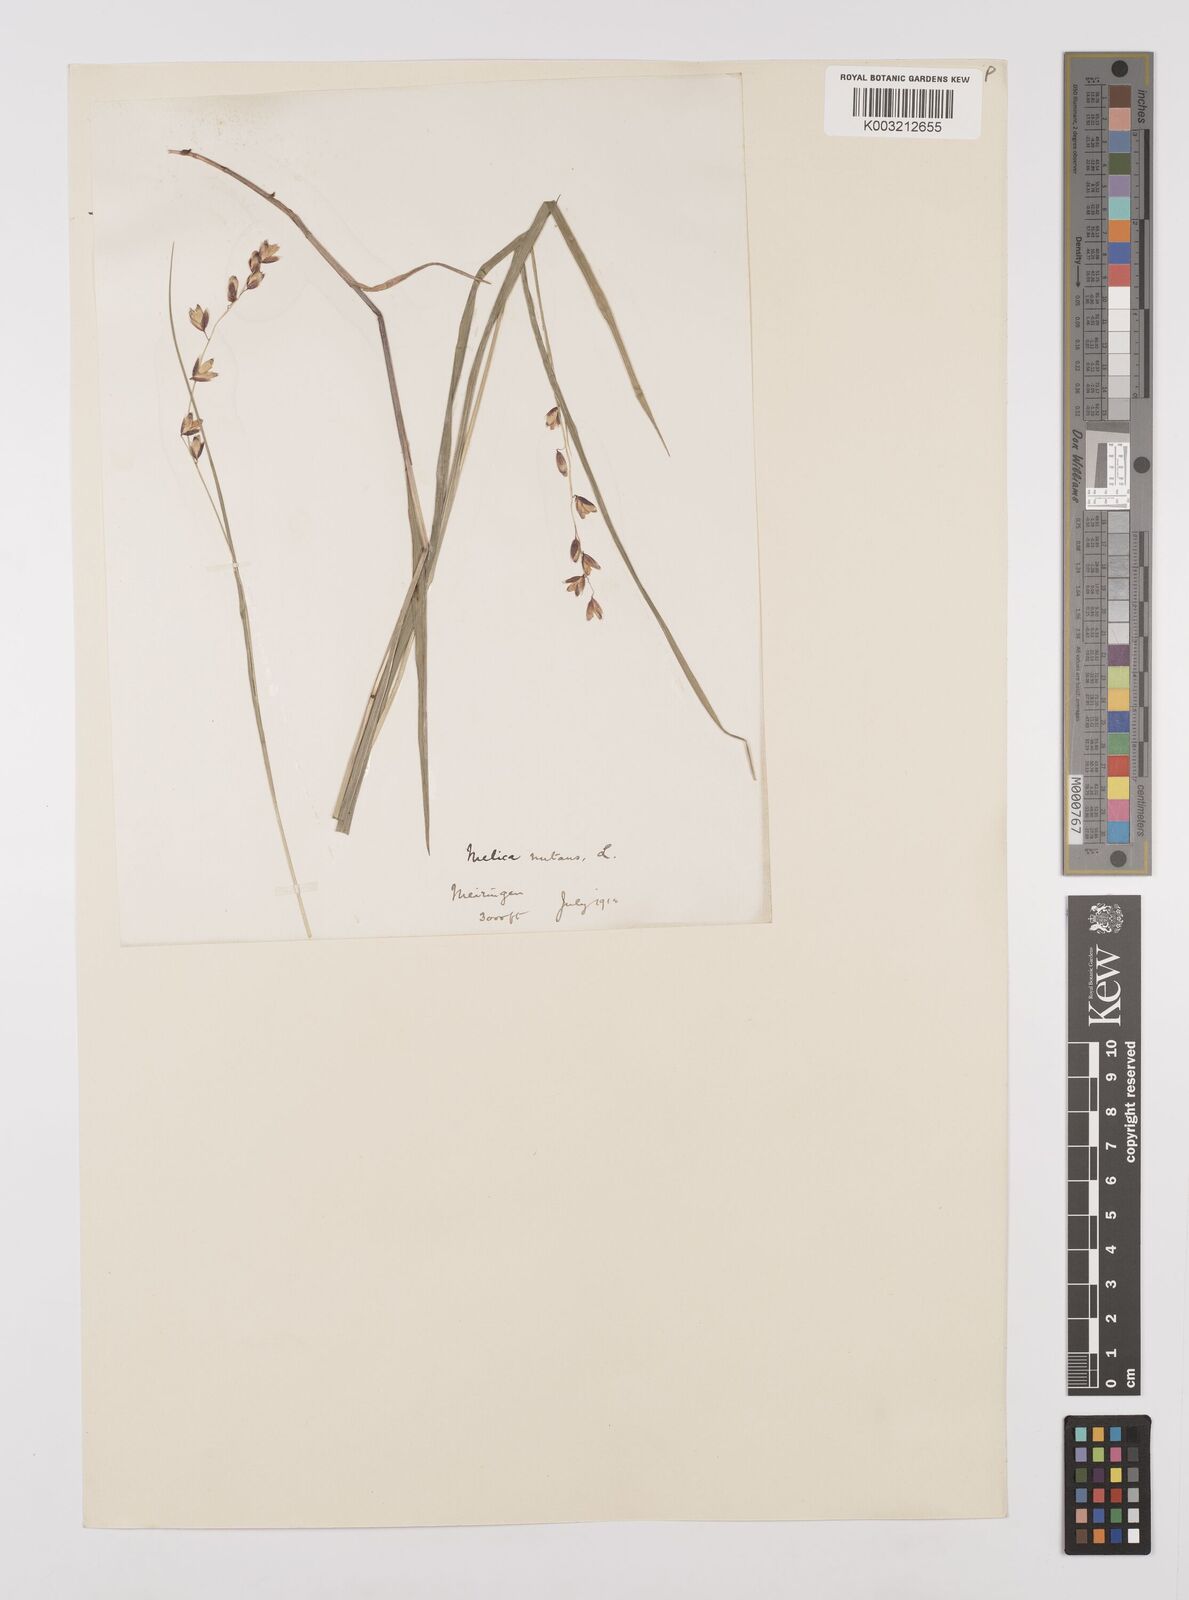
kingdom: Plantae
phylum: Tracheophyta
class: Liliopsida
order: Poales
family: Poaceae
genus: Melica
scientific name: Melica
